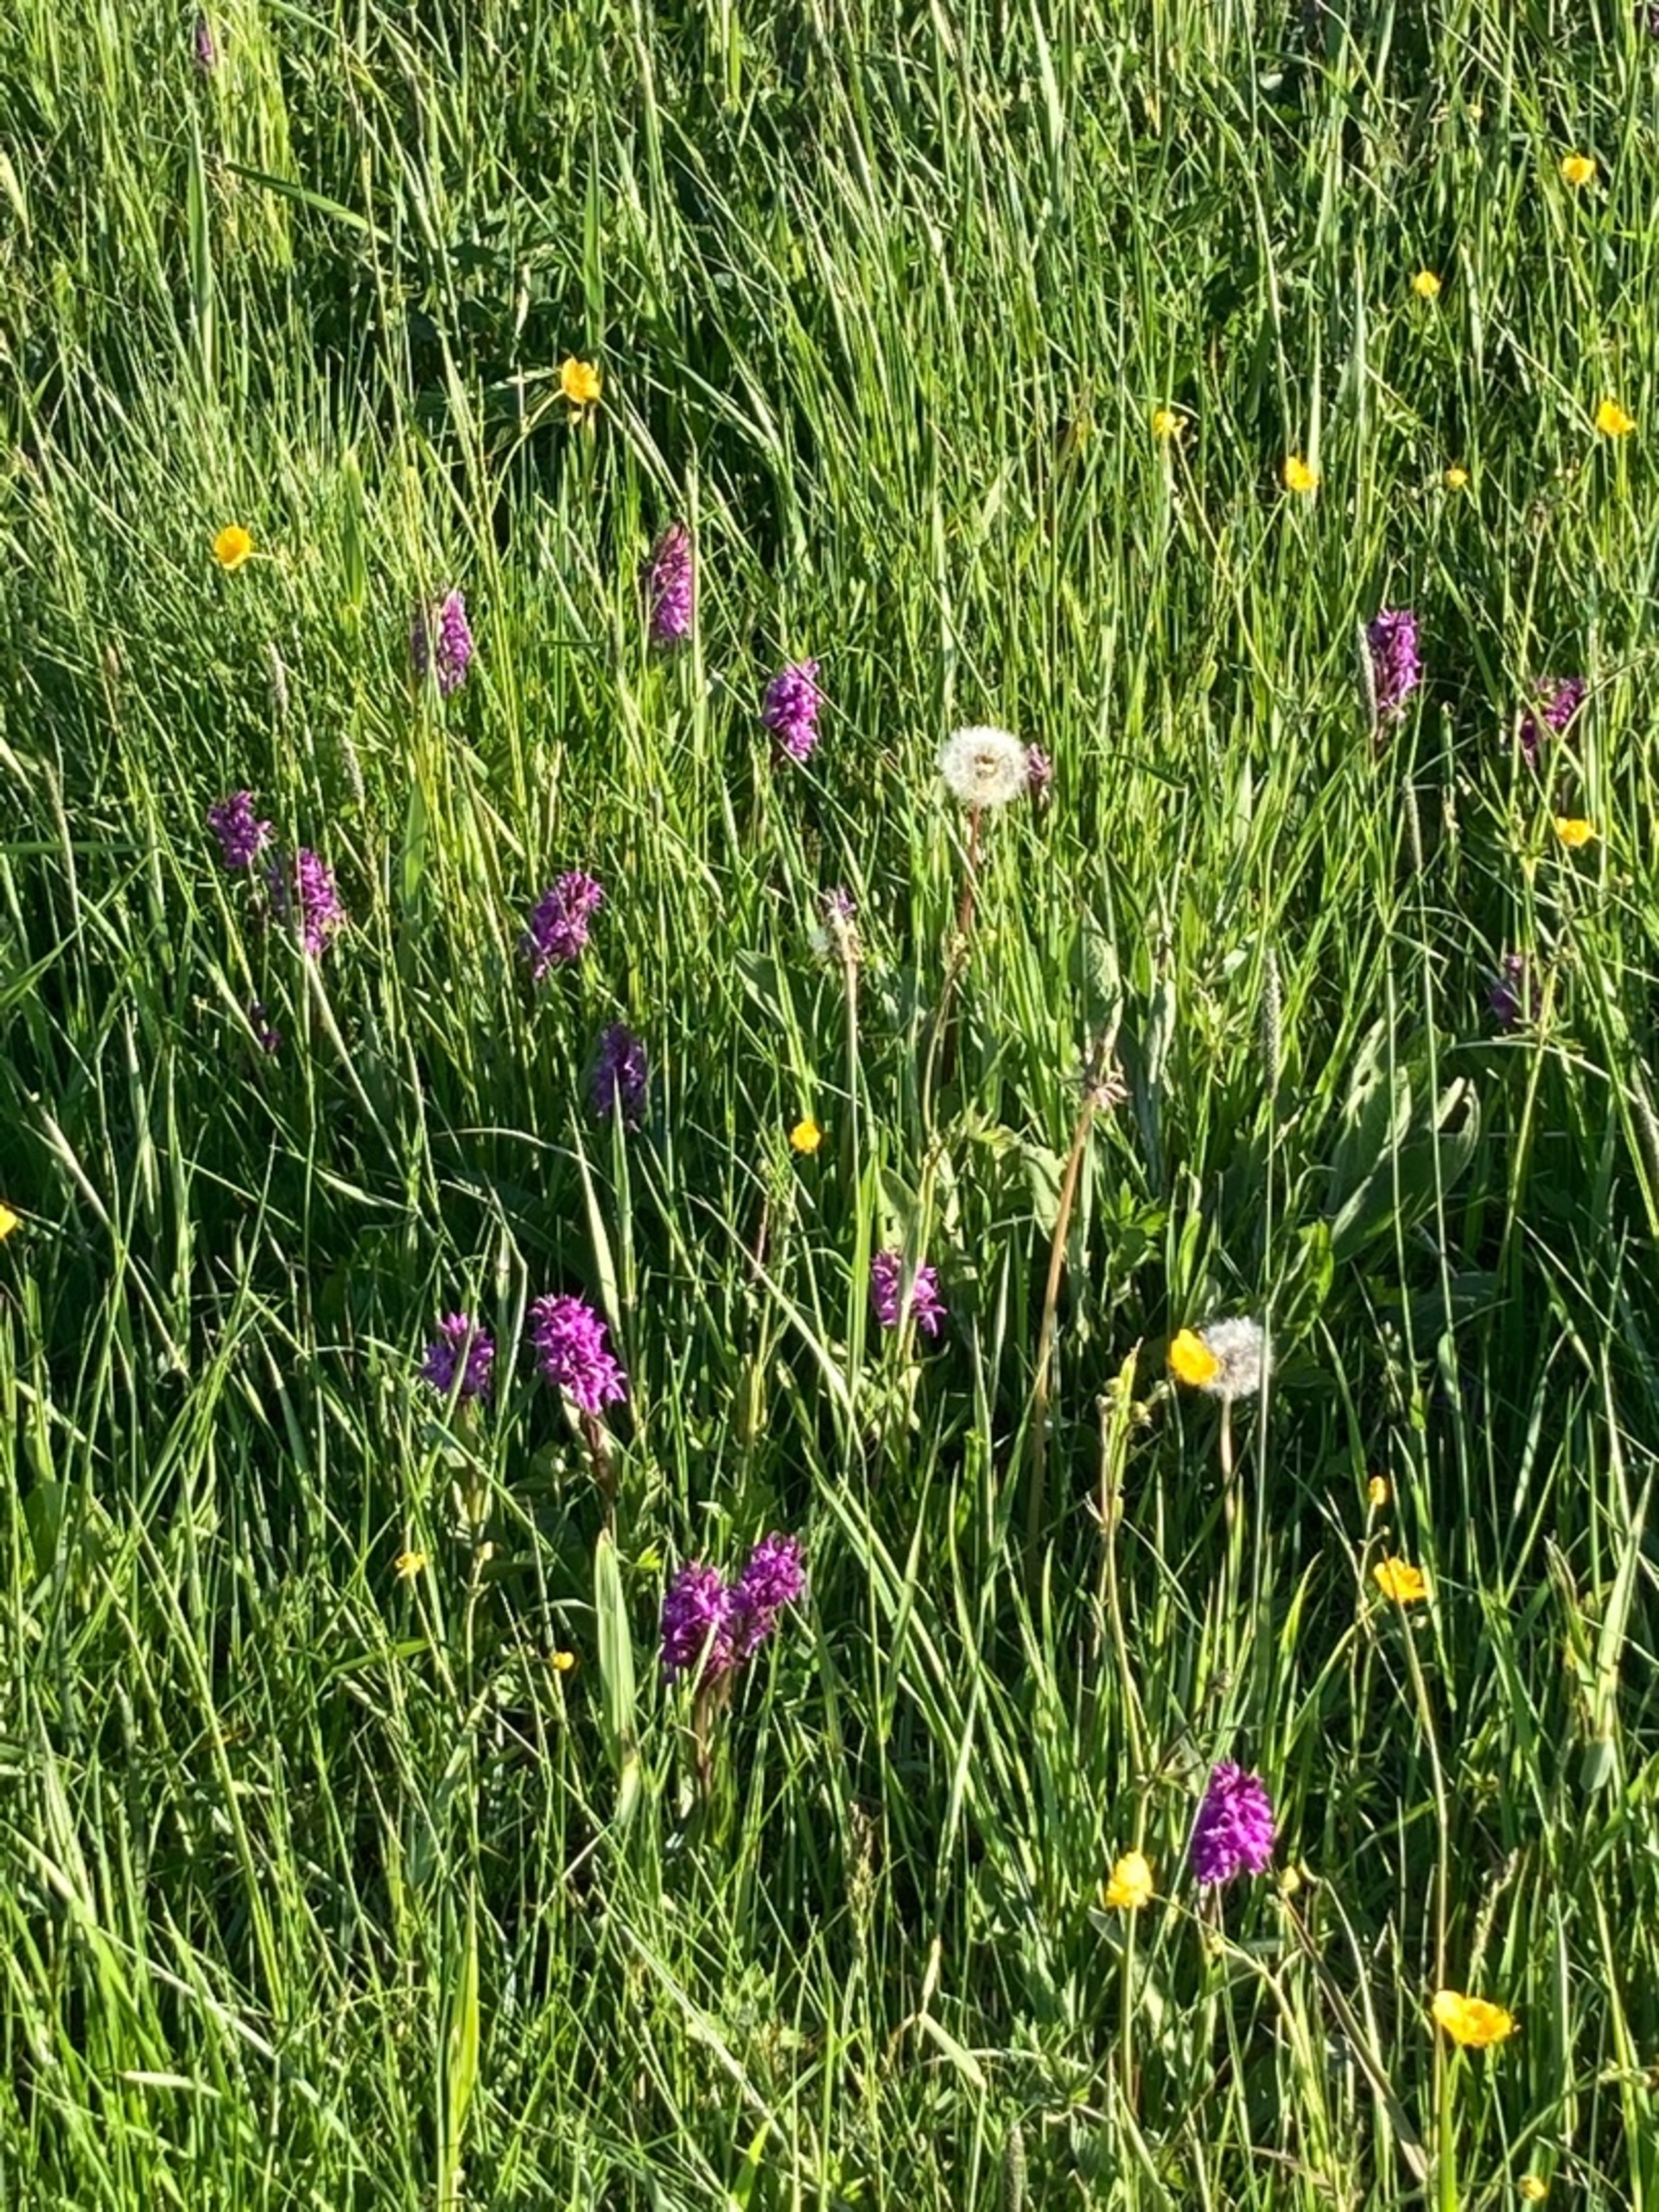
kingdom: Plantae
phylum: Tracheophyta
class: Liliopsida
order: Asparagales
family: Orchidaceae
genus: Dactylorhiza
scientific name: Dactylorhiza majalis
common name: Maj-gøgeurt
